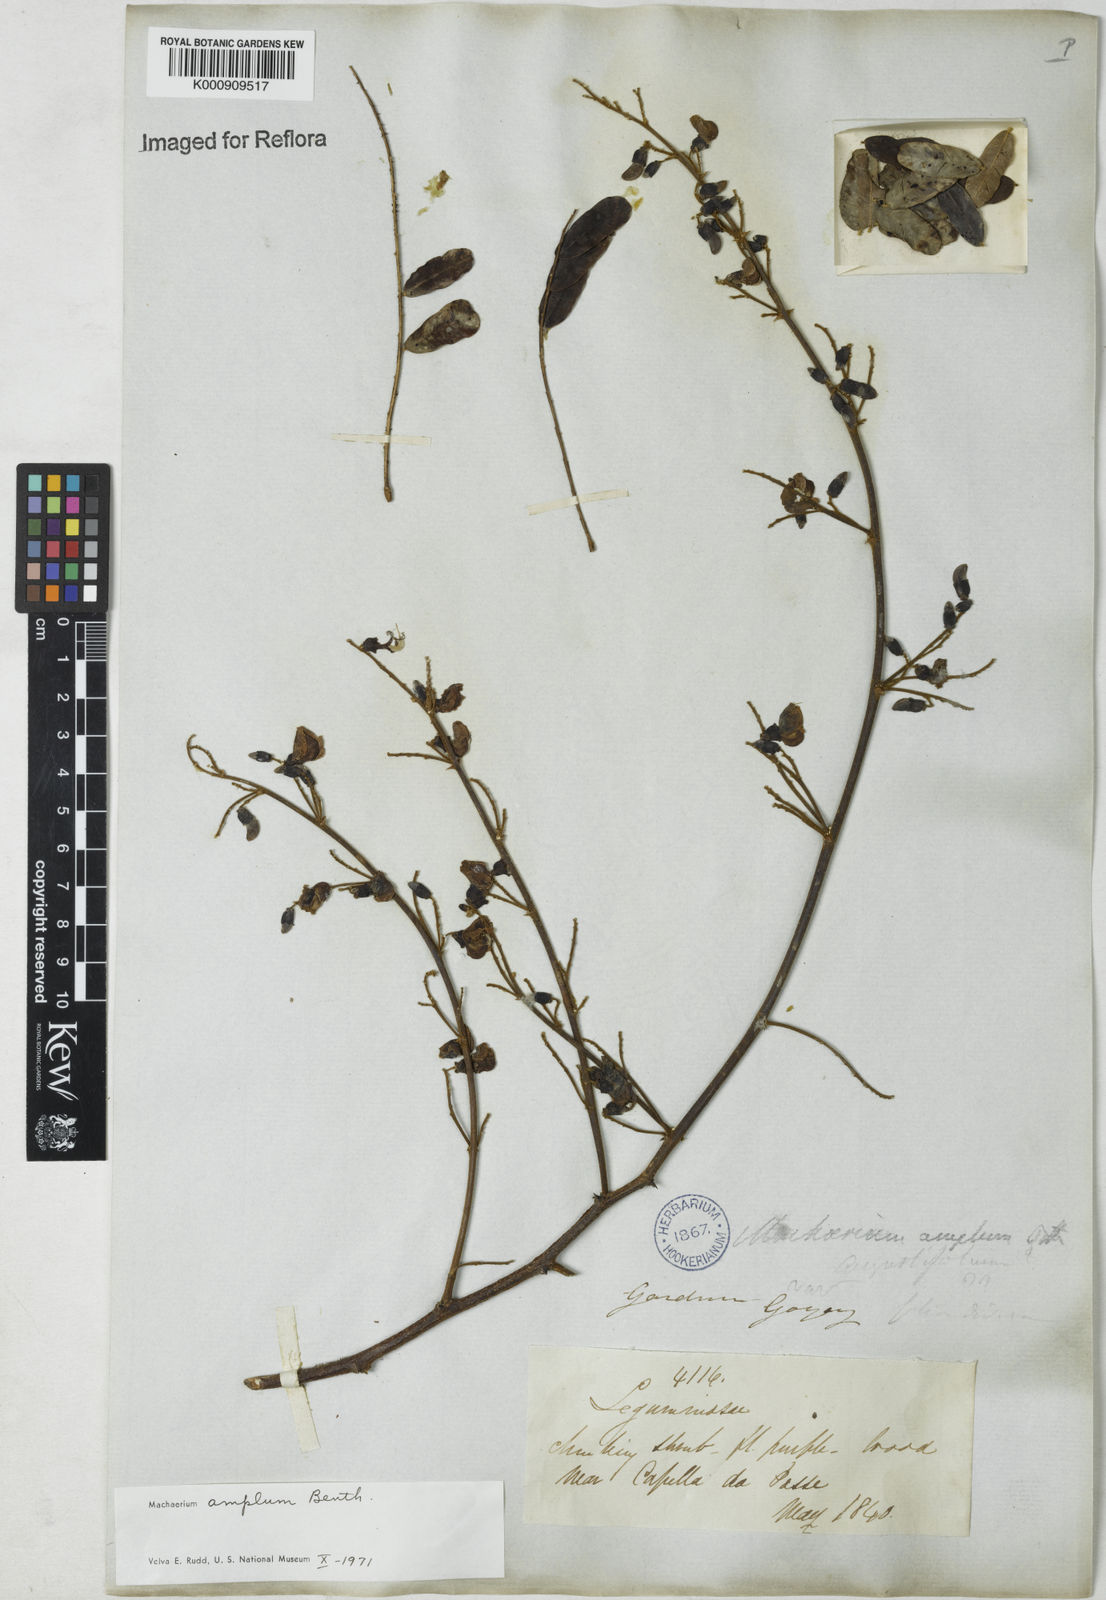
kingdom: Plantae
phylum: Tracheophyta
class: Magnoliopsida
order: Fabales
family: Fabaceae
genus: Machaerium
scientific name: Machaerium amplum
